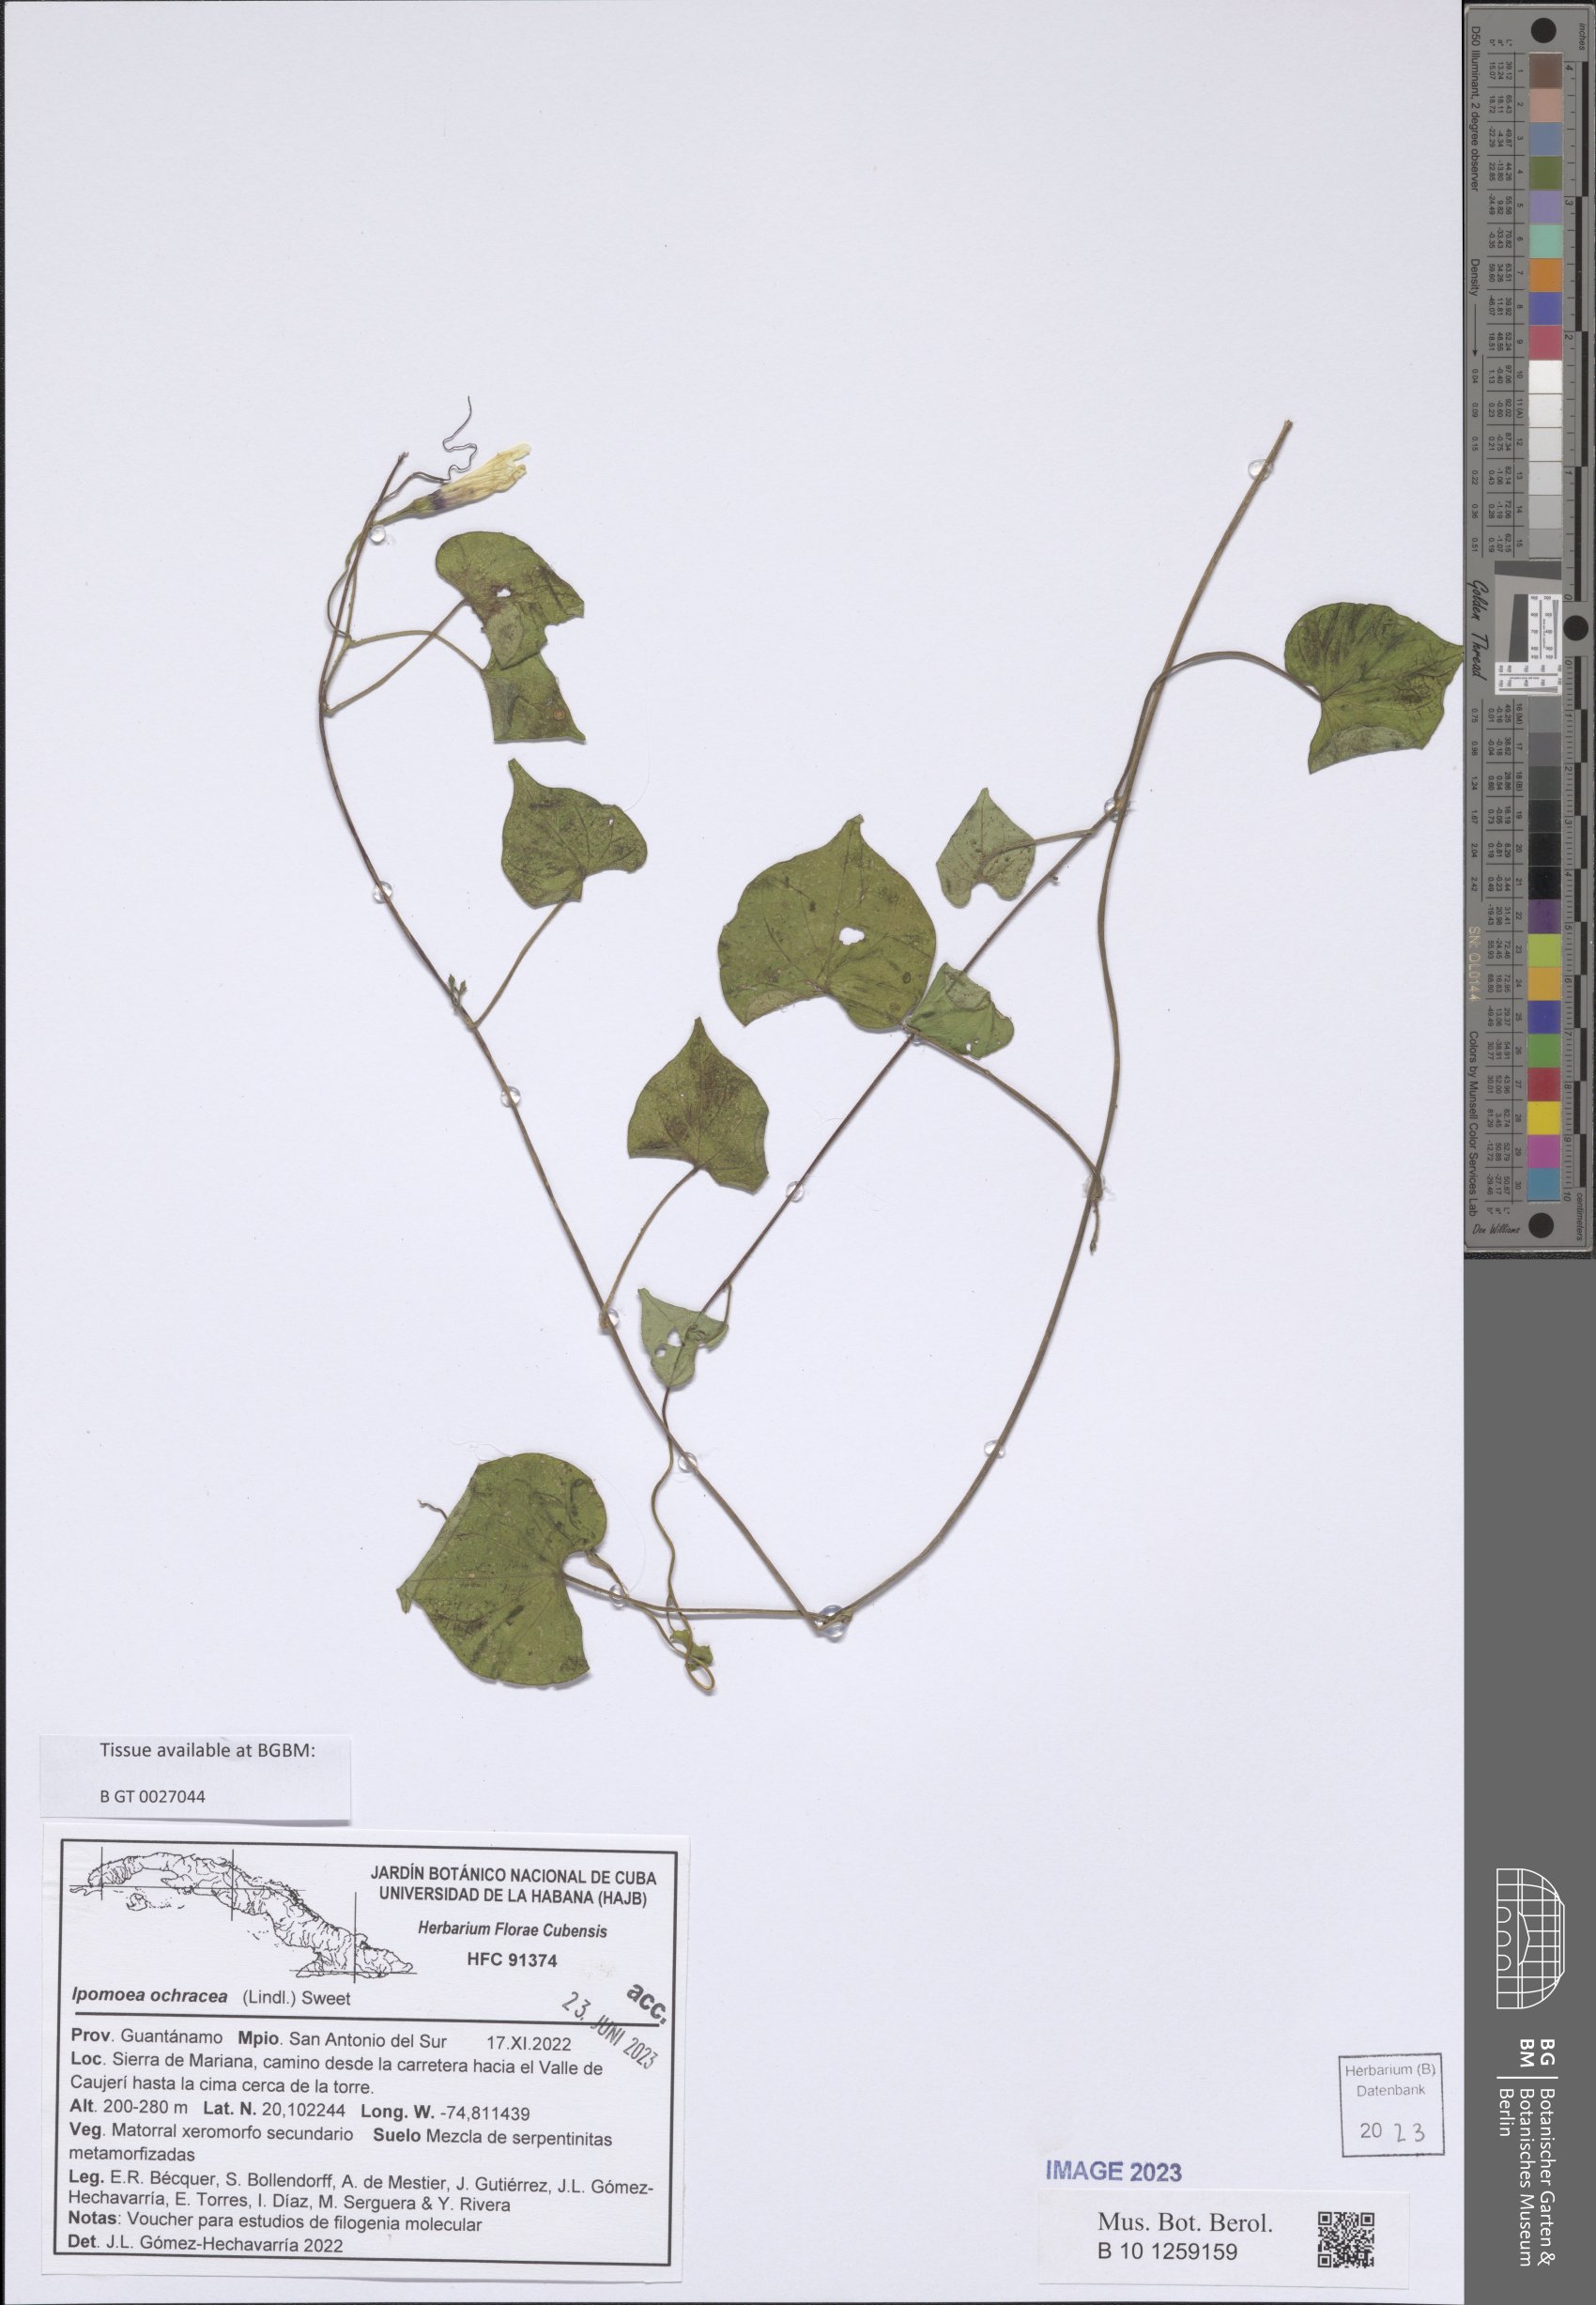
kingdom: Plantae
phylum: Tracheophyta
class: Magnoliopsida
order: Solanales
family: Convolvulaceae
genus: Ipomoea
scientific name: Ipomoea ochracea
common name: Fence morning-glory
